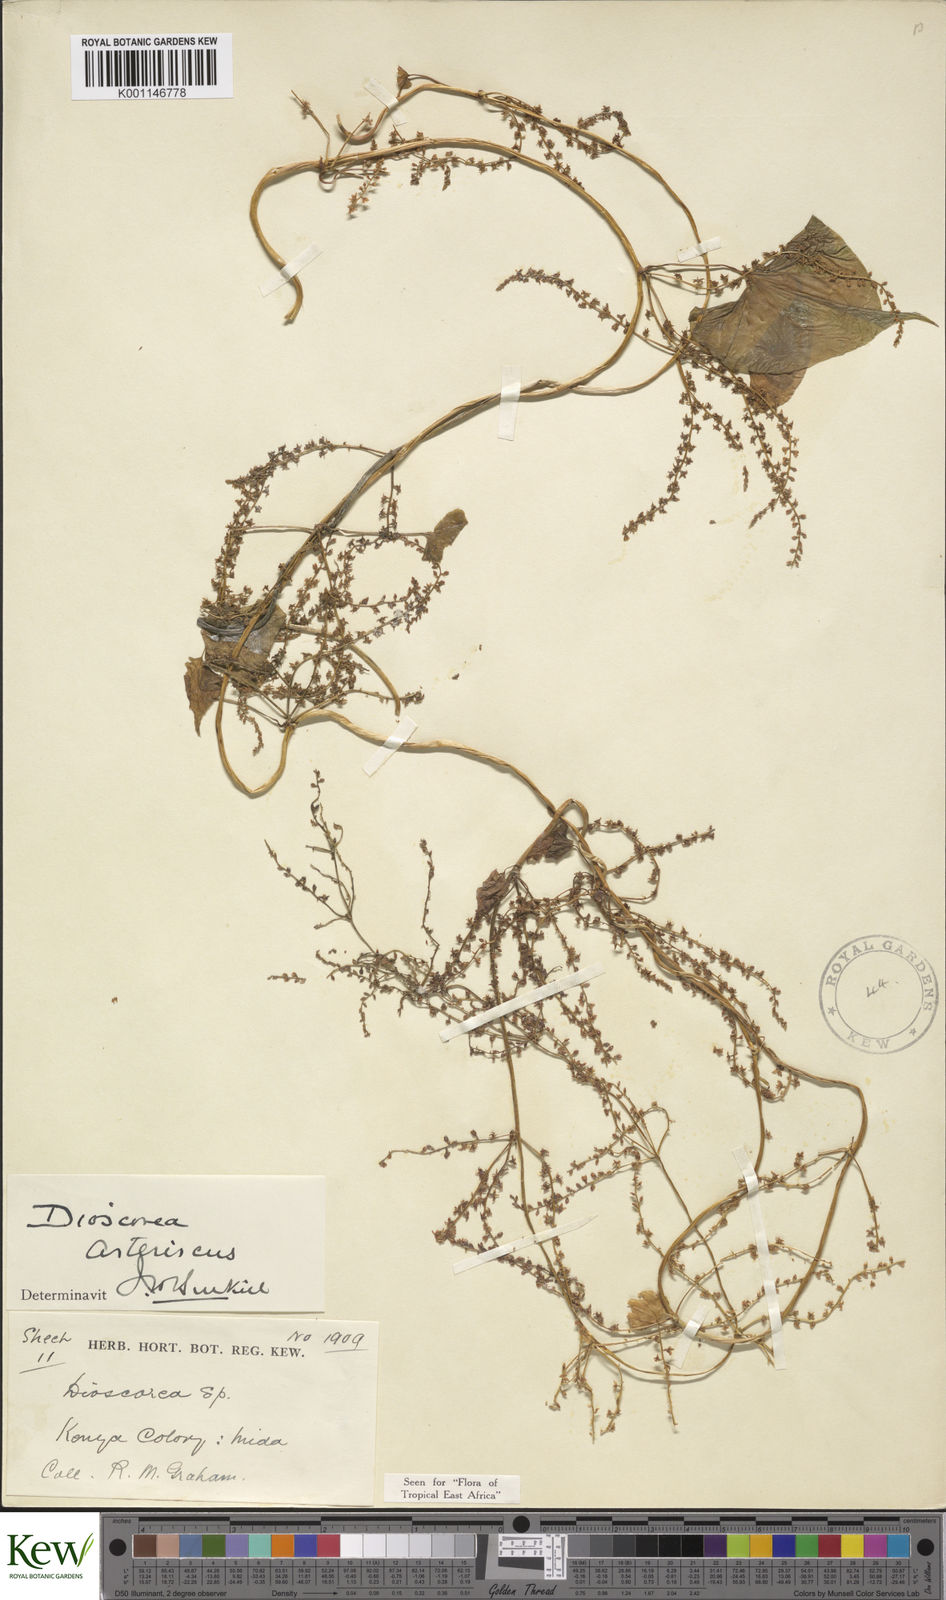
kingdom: Plantae
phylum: Tracheophyta
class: Liliopsida
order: Dioscoreales
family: Dioscoreaceae
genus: Dioscorea
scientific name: Dioscorea asteriscus
